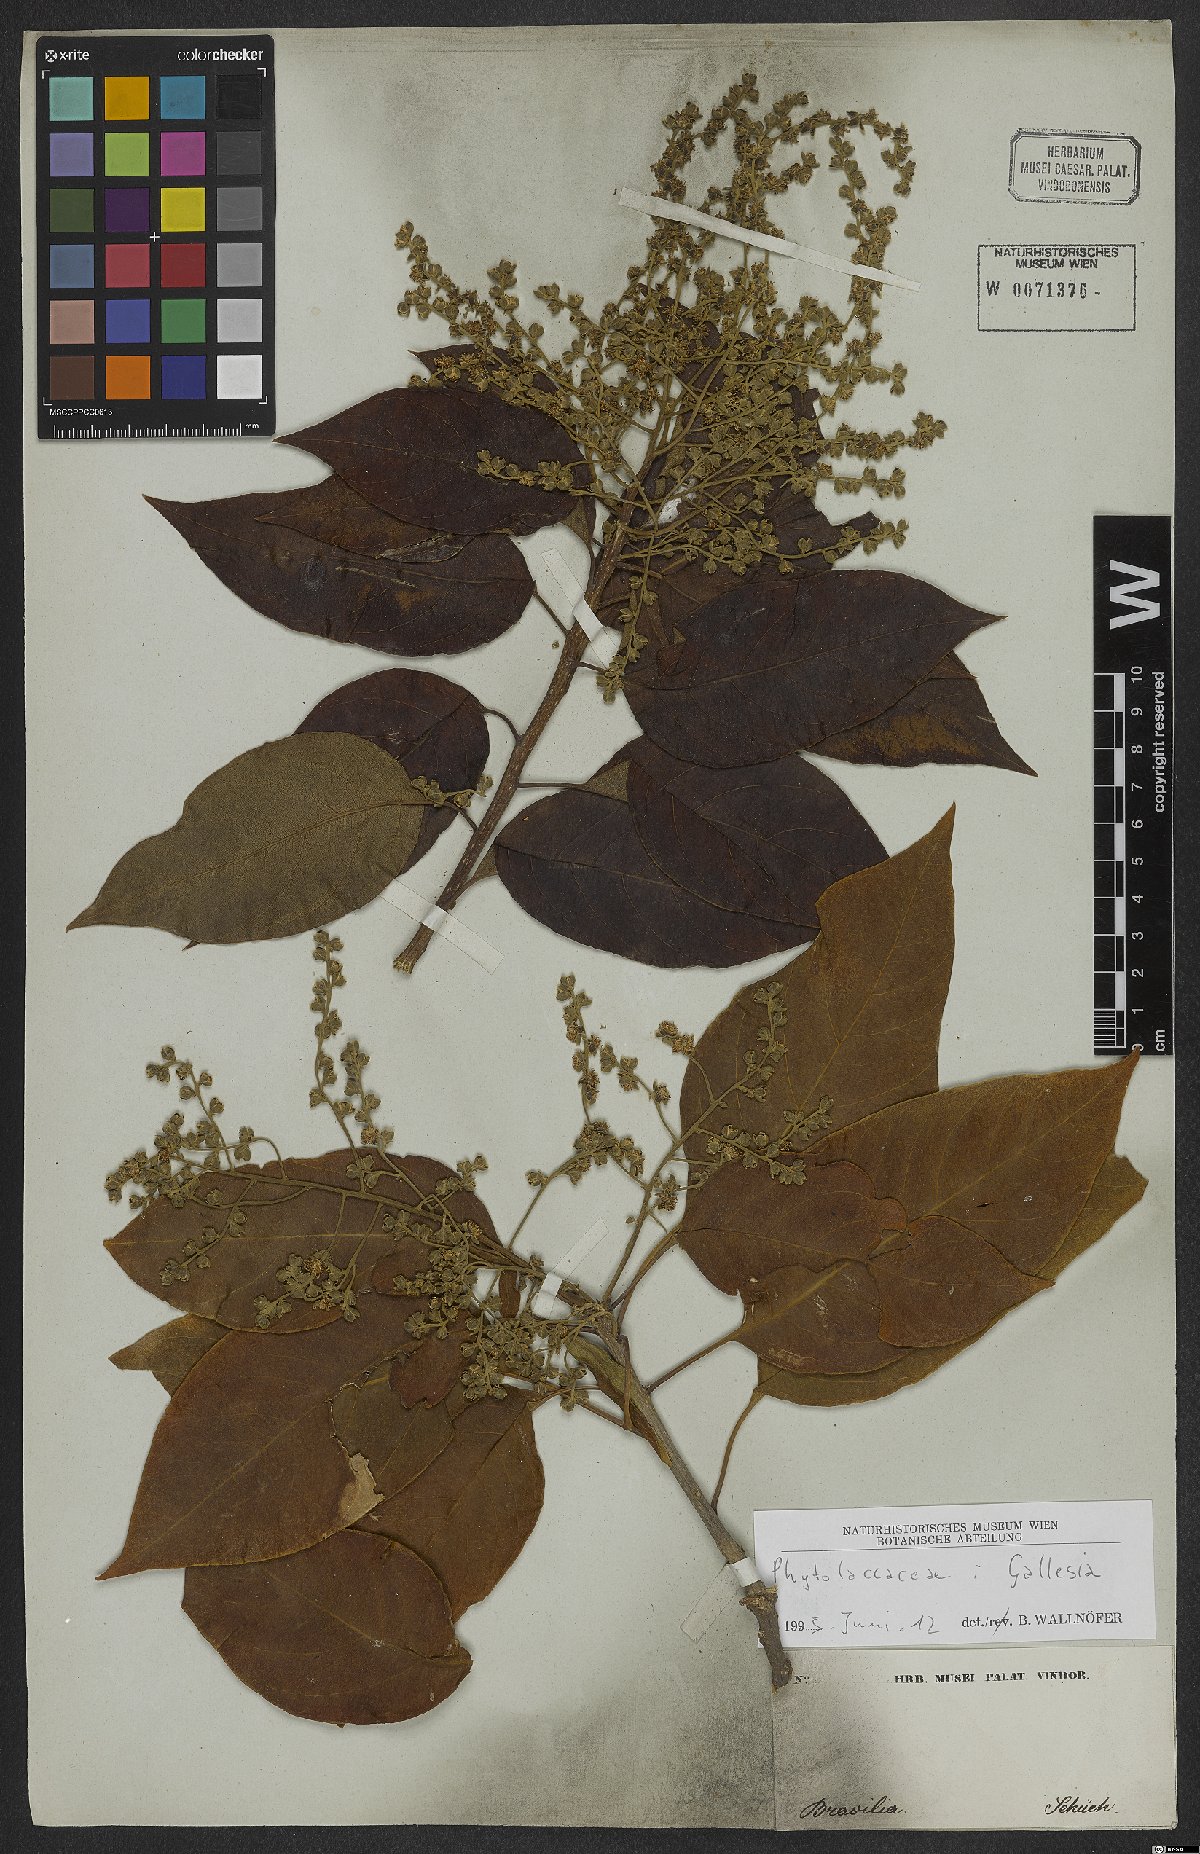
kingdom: Plantae
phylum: Tracheophyta
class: Magnoliopsida
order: Caryophyllales
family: Phytolaccaceae
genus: Gallesia
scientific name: Gallesia
